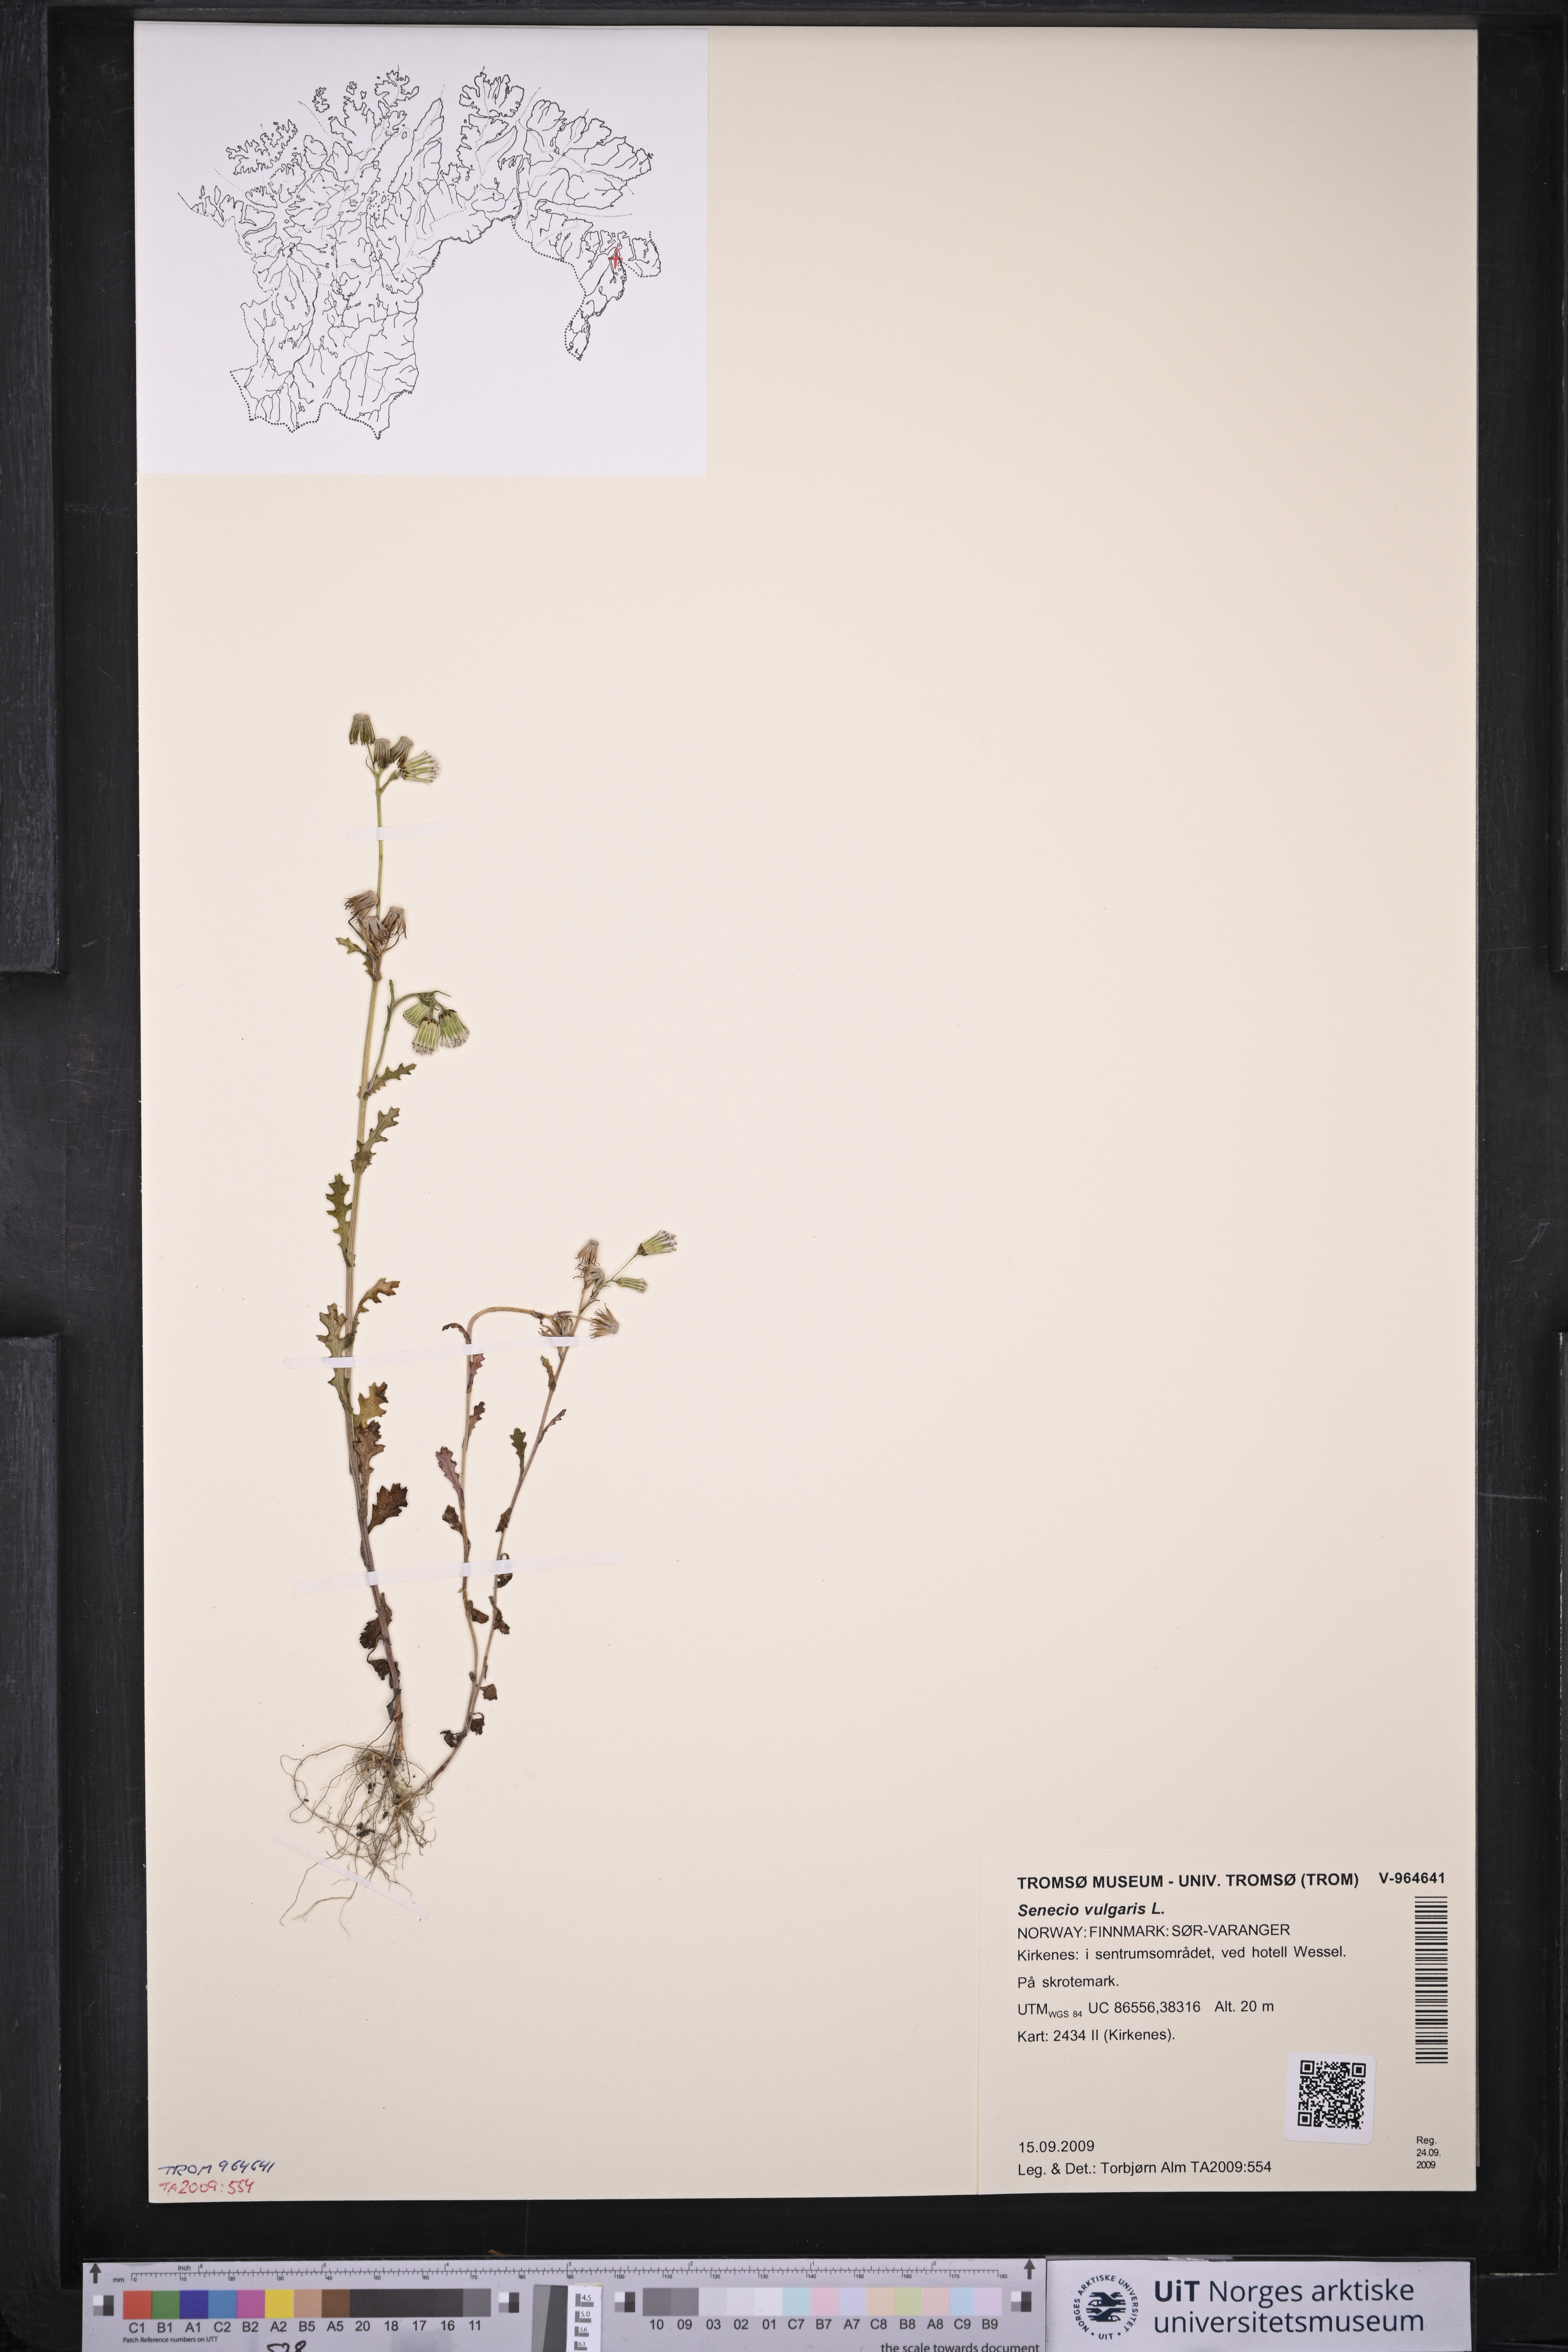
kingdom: Plantae
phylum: Tracheophyta
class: Magnoliopsida
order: Asterales
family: Asteraceae
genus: Senecio
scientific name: Senecio vulgaris
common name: Old-man-in-the-spring
